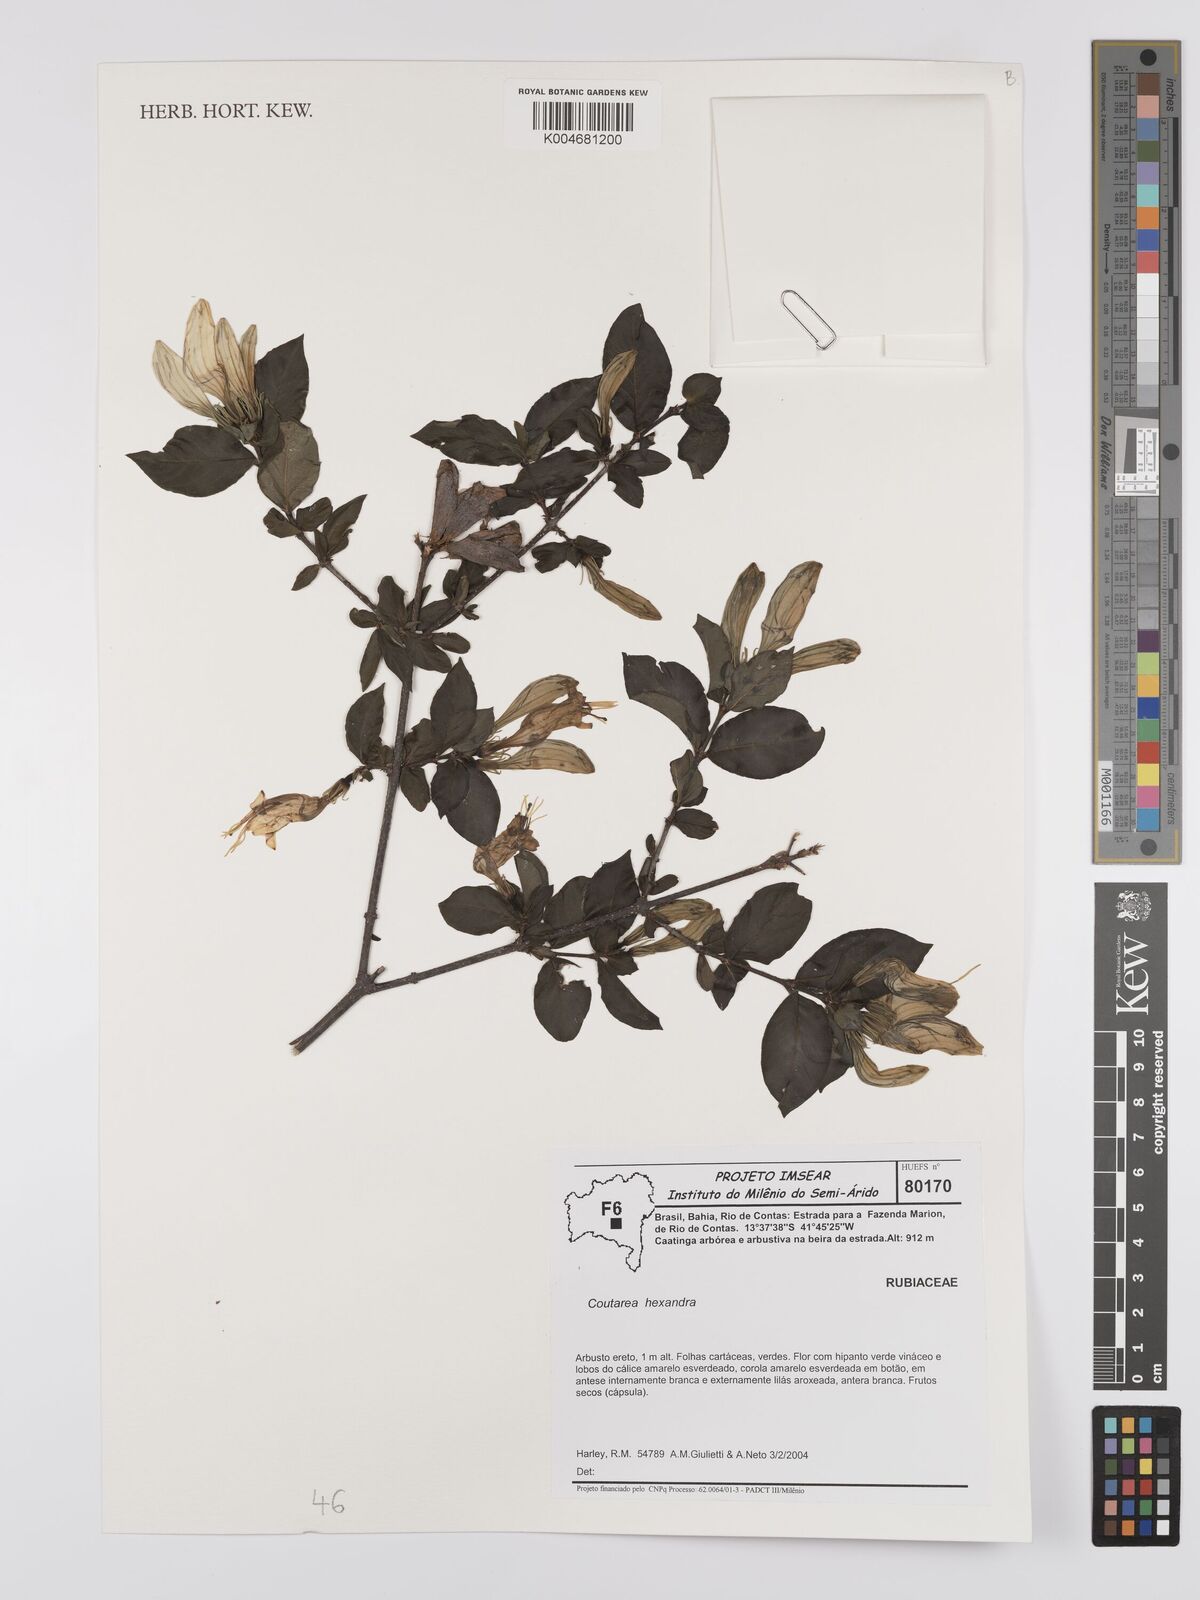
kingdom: Plantae
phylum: Tracheophyta
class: Magnoliopsida
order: Gentianales
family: Rubiaceae
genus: Coutarea
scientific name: Coutarea hexandra
